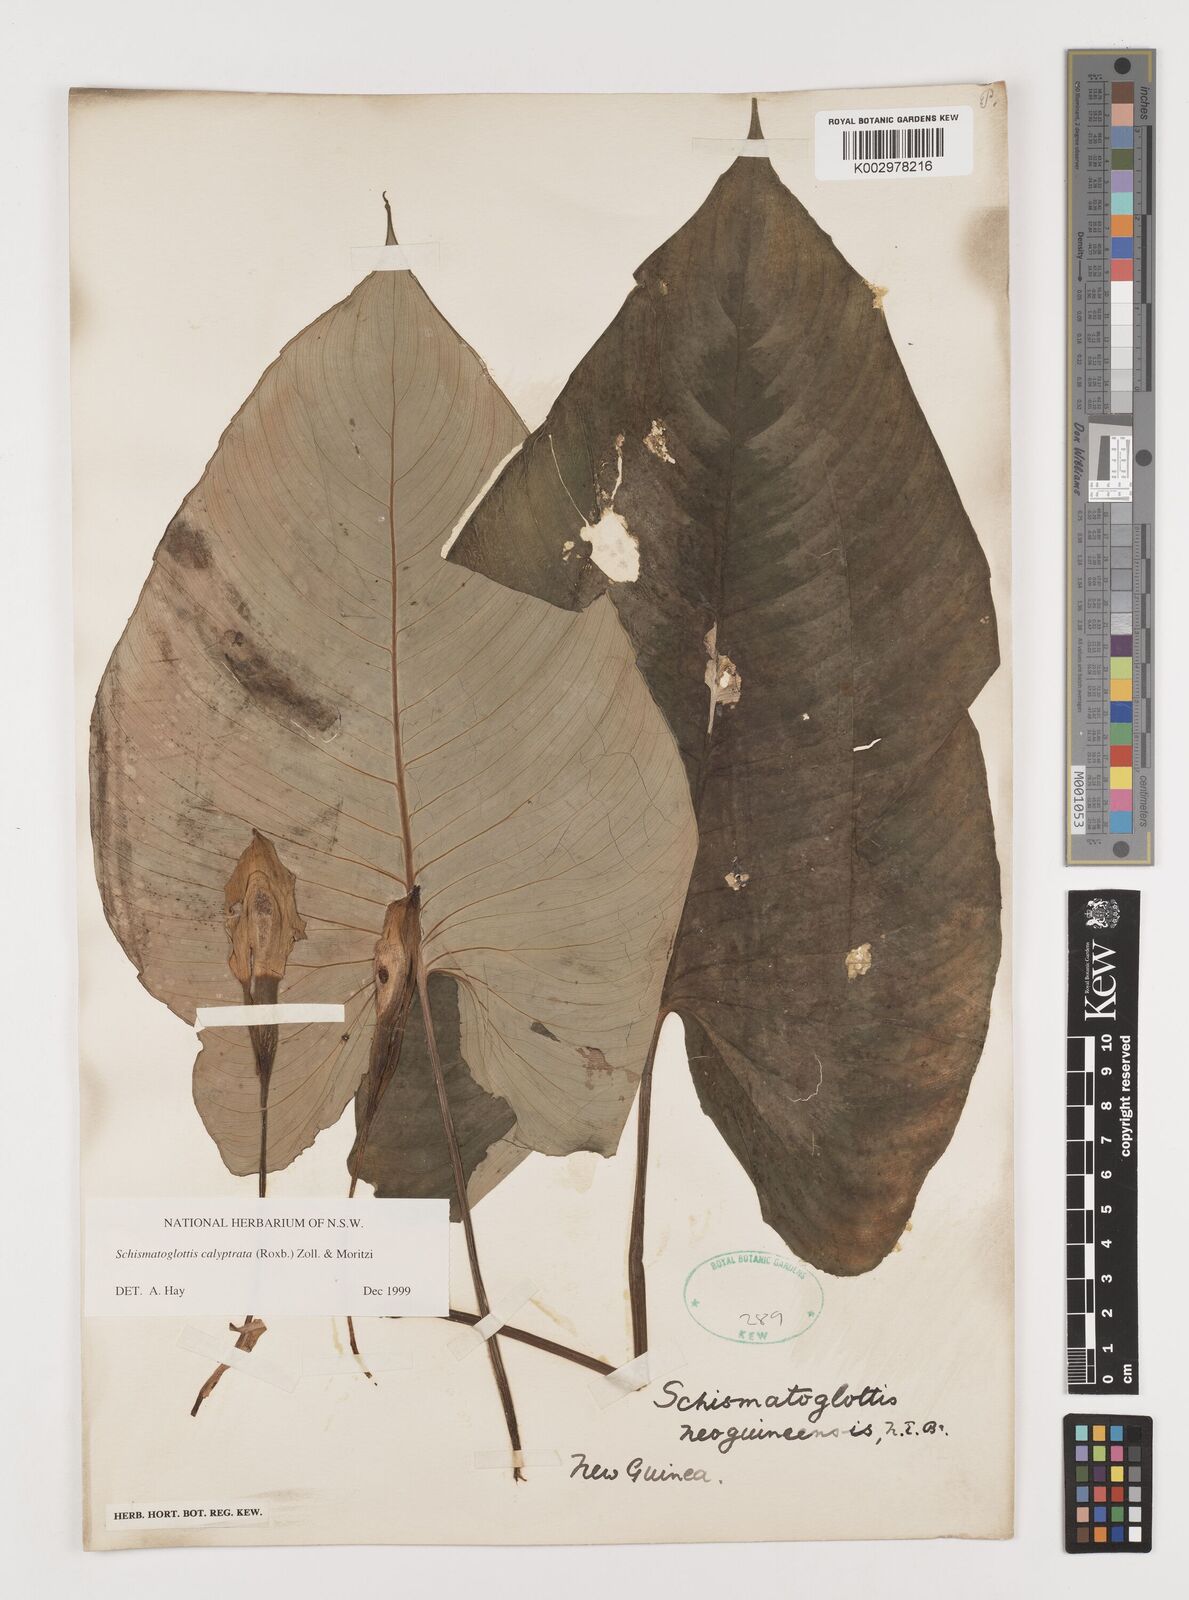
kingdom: Plantae
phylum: Tracheophyta
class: Liliopsida
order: Alismatales
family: Araceae
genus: Schismatoglottis
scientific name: Schismatoglottis calyptrata
